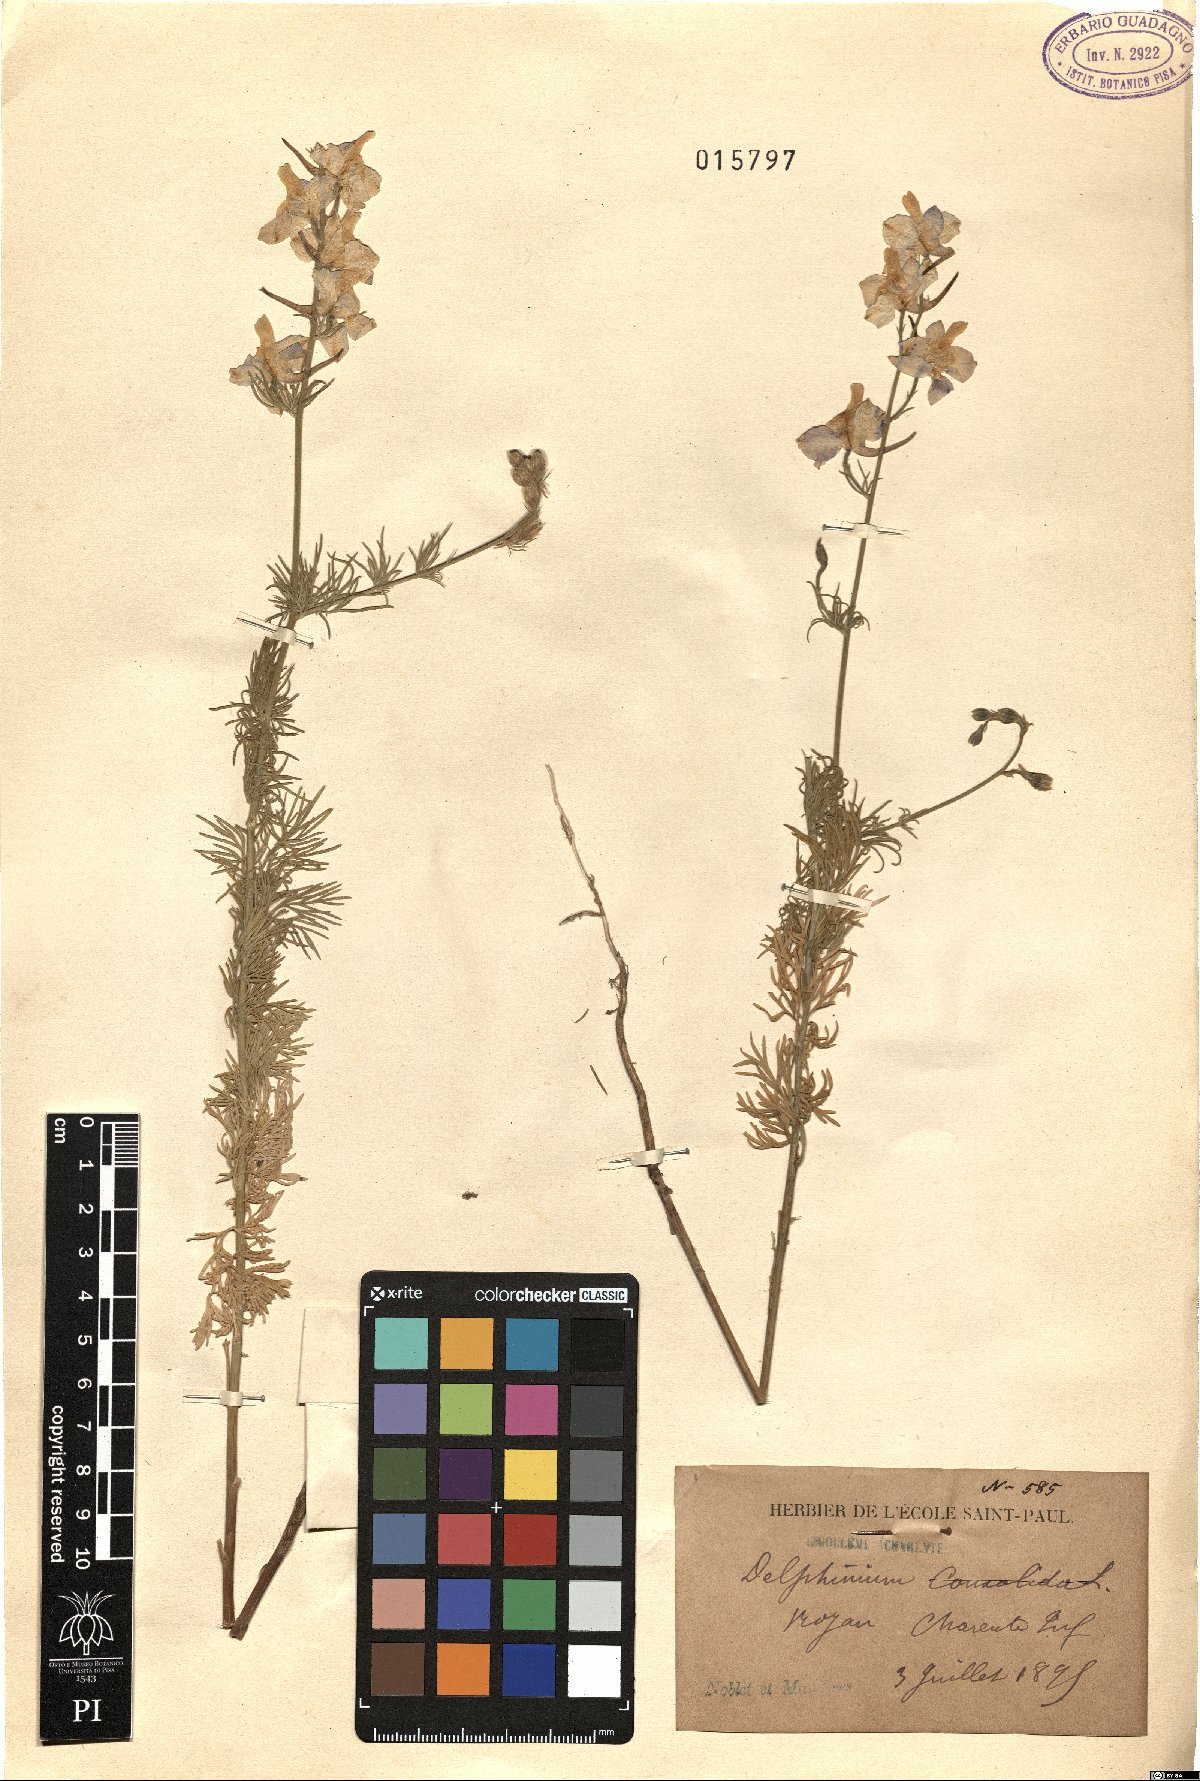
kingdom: Plantae
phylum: Tracheophyta
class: Magnoliopsida
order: Ranunculales
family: Ranunculaceae
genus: Delphinium
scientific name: Delphinium consolida
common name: Branching larkspur
